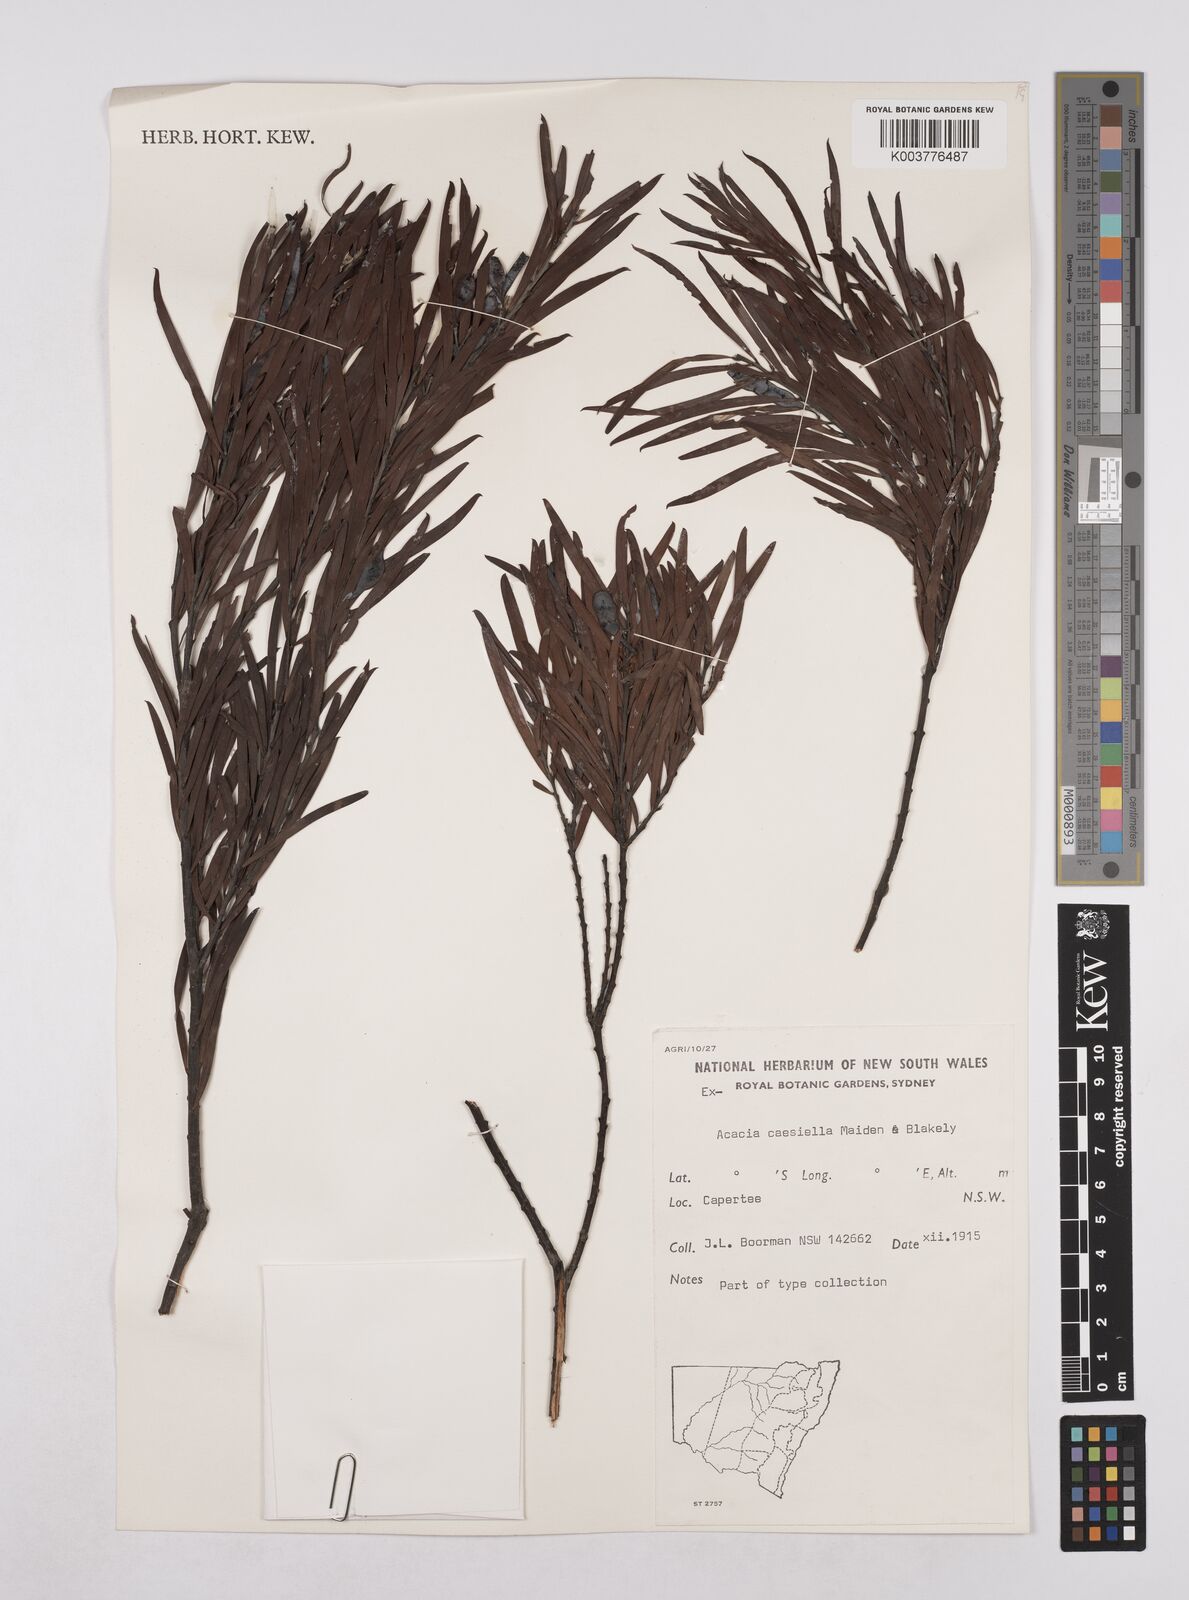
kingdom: Plantae
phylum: Tracheophyta
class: Magnoliopsida
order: Fabales
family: Fabaceae
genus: Acacia
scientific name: Acacia caesiella
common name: Tableland wattle
